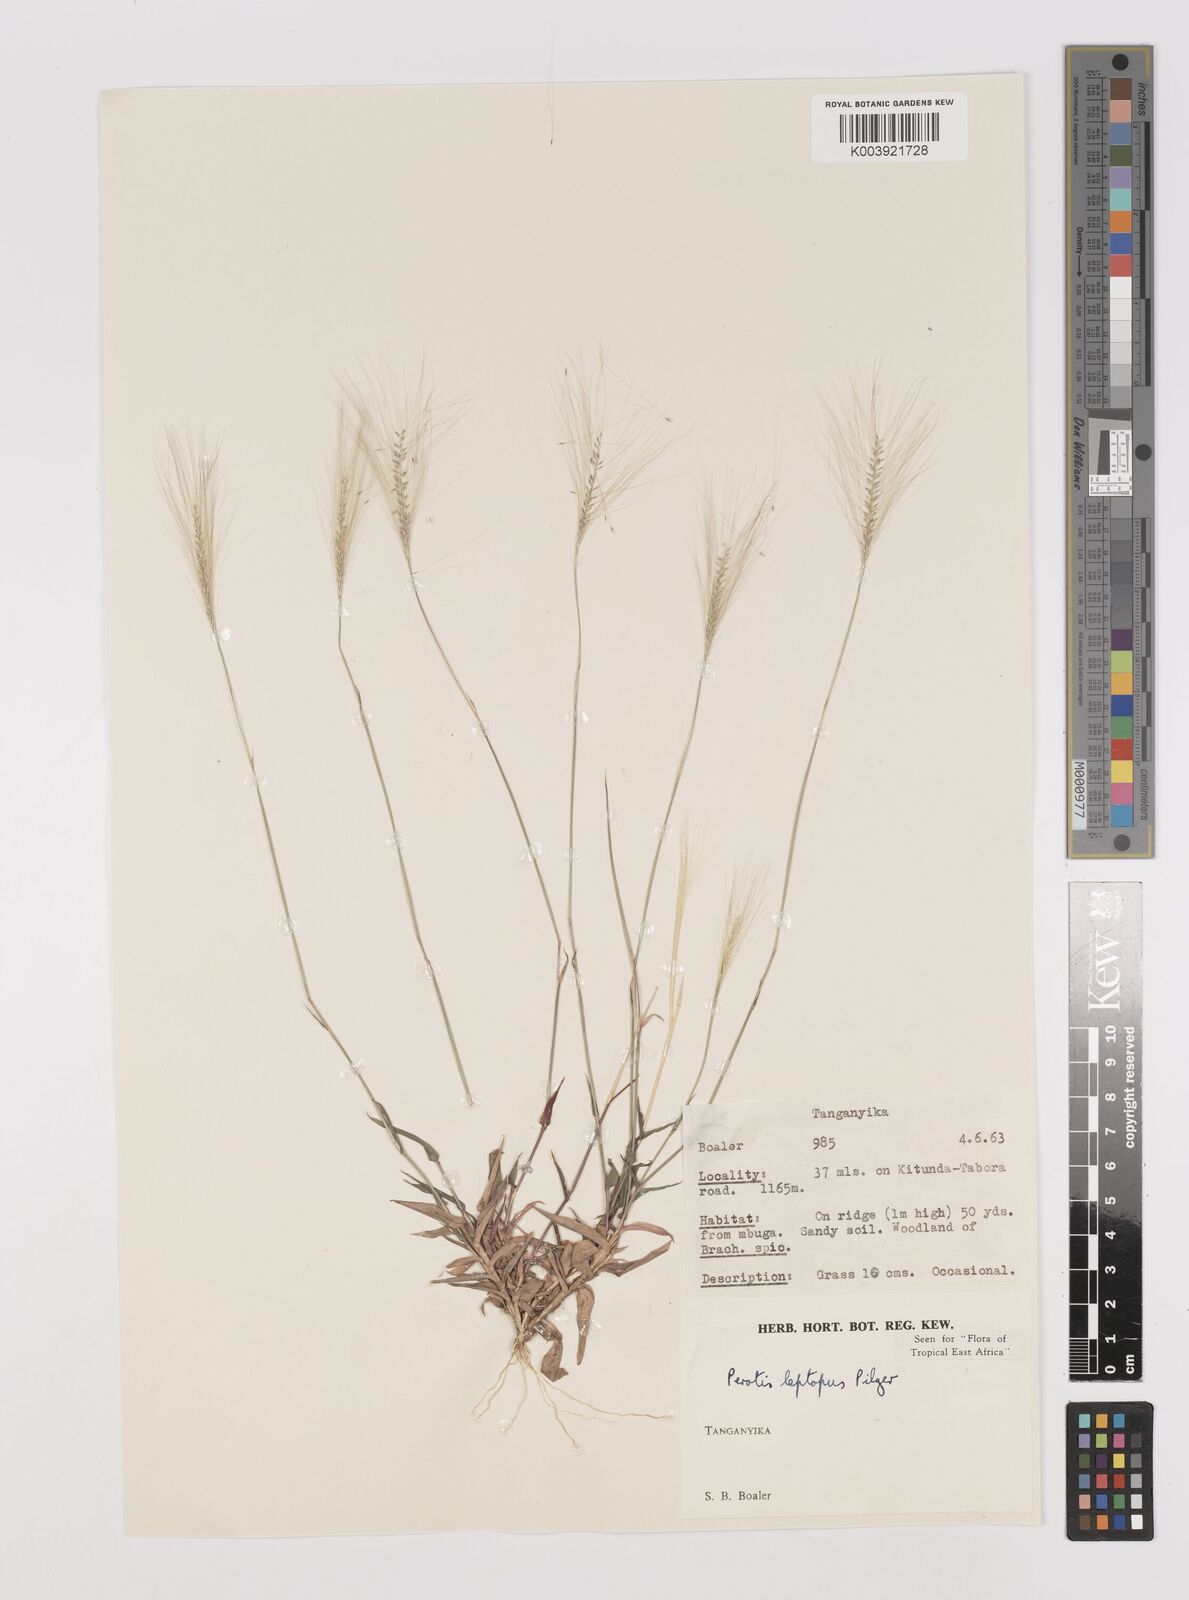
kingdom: Plantae
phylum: Tracheophyta
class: Liliopsida
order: Poales
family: Poaceae
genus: Perotis
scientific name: Perotis leptopus
